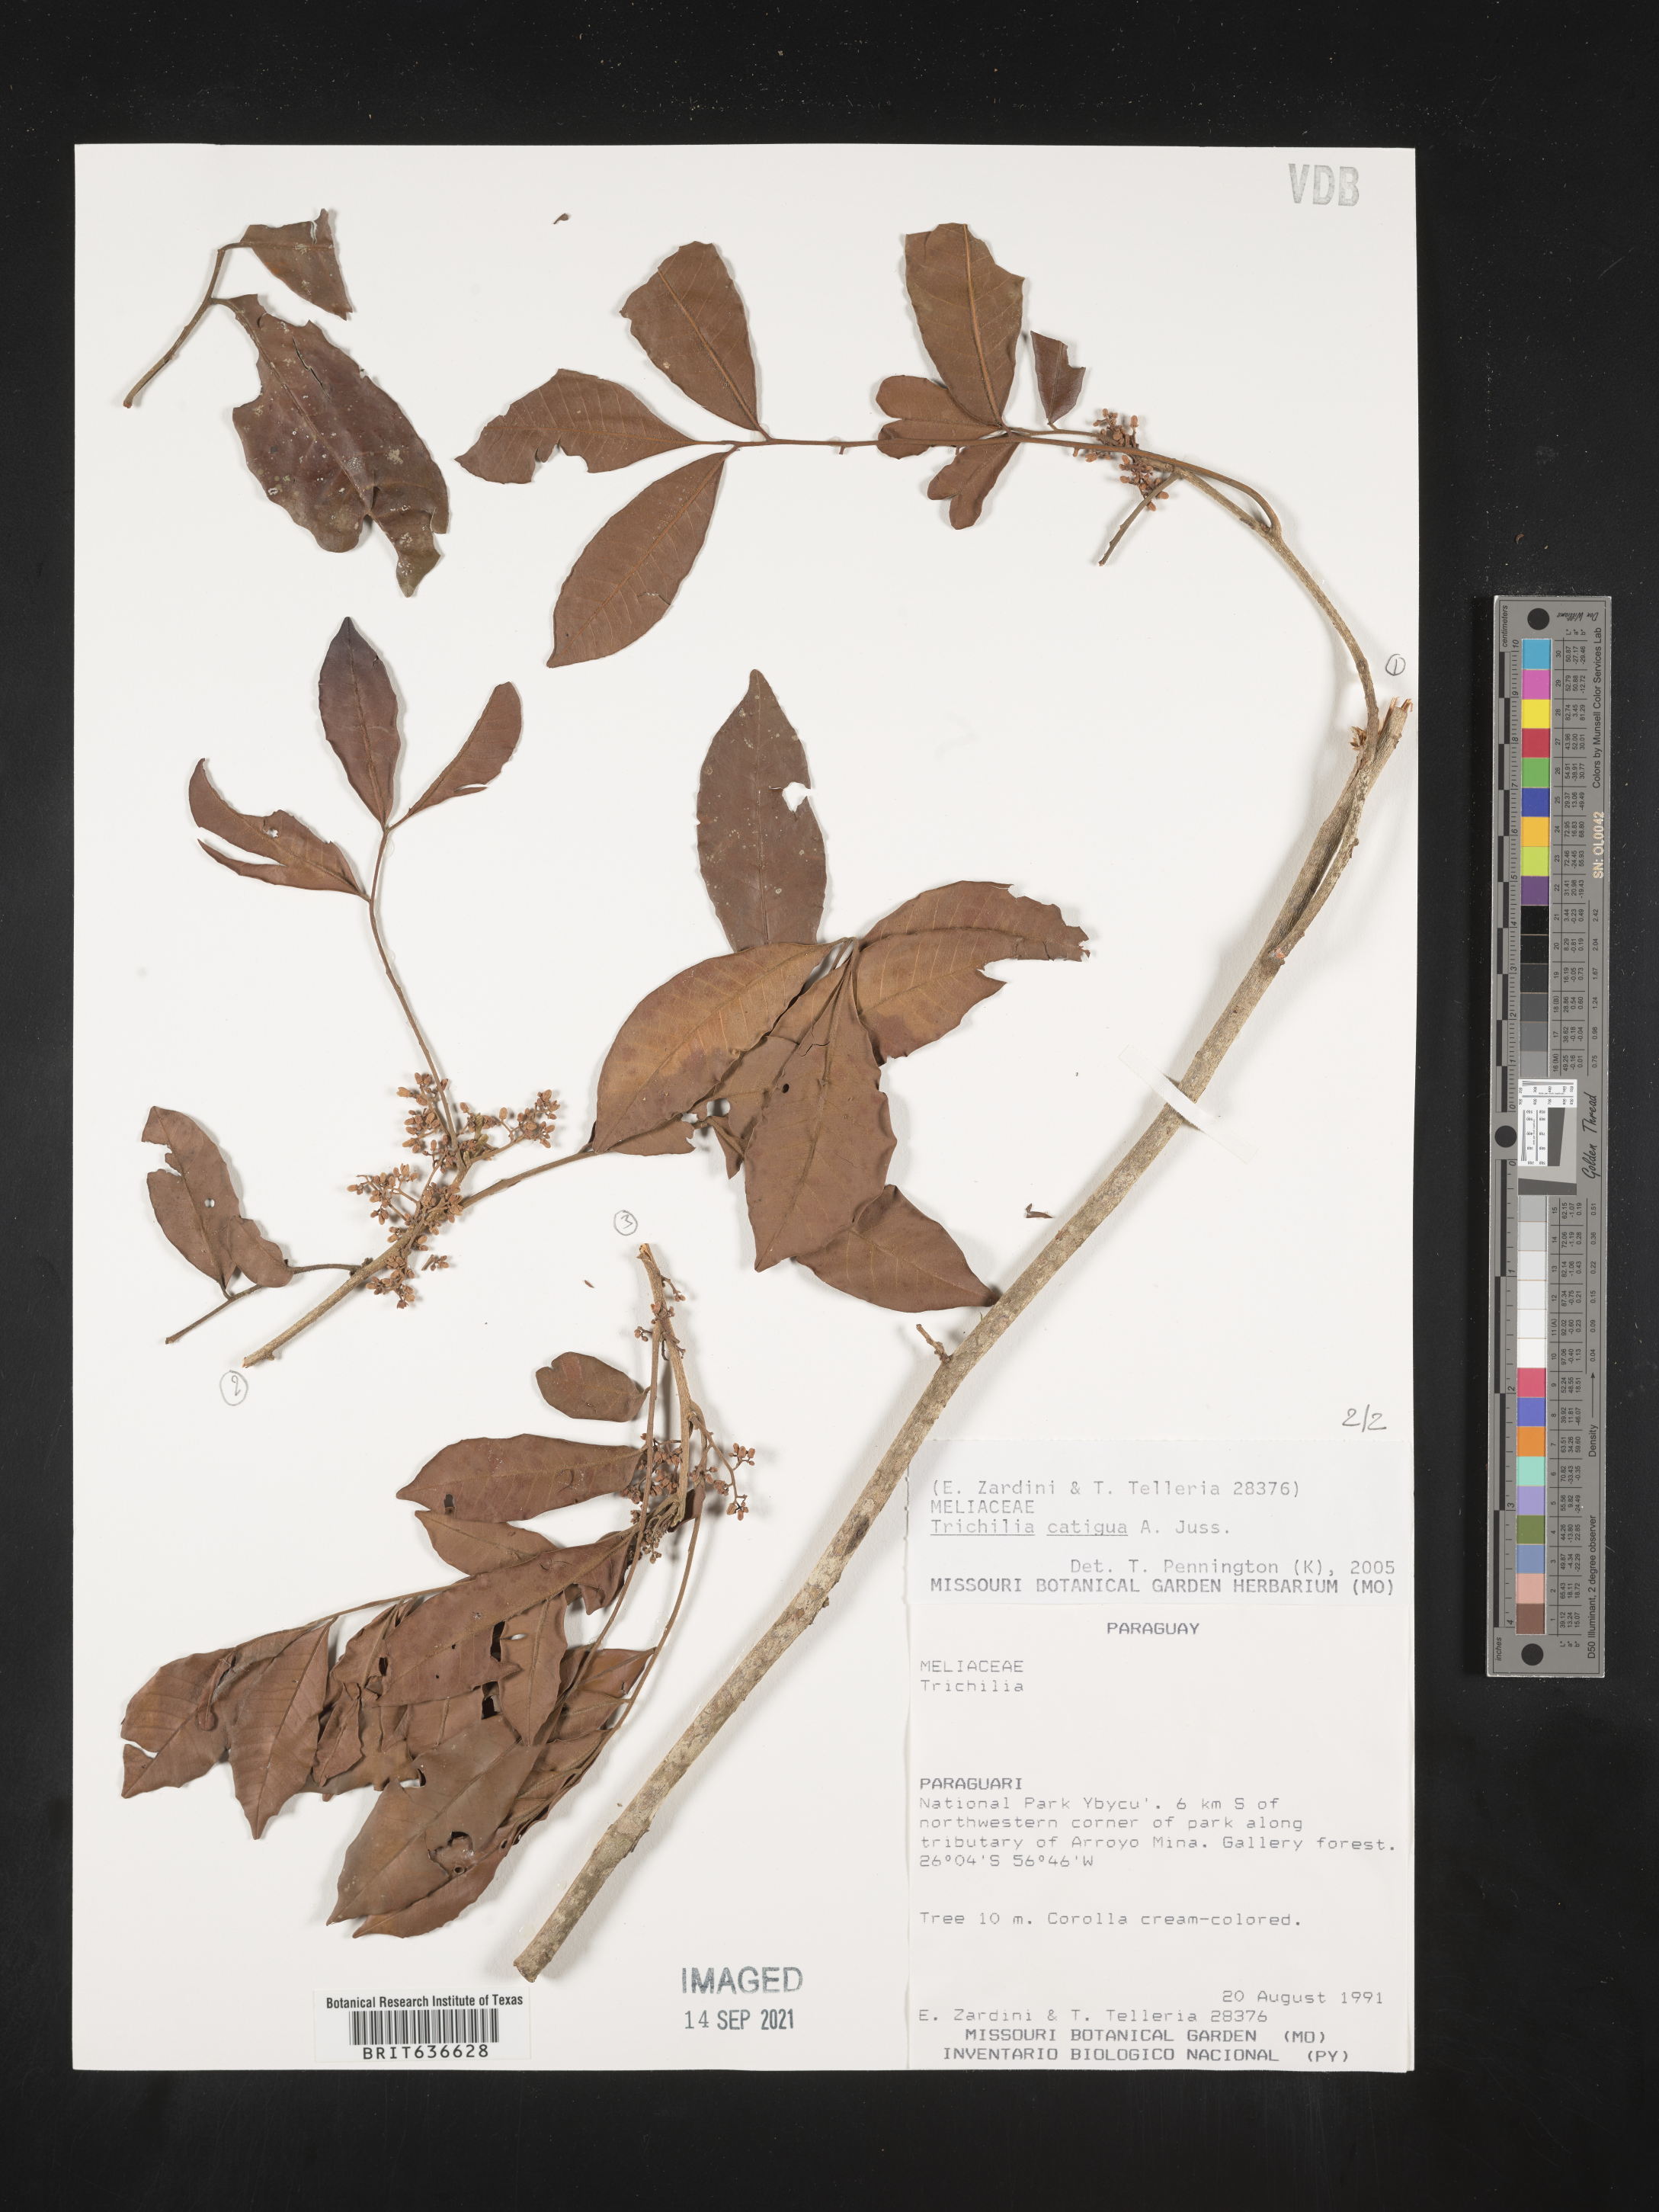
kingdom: Plantae
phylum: Tracheophyta
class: Magnoliopsida
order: Sapindales
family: Meliaceae
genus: Trichilia
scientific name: Trichilia
